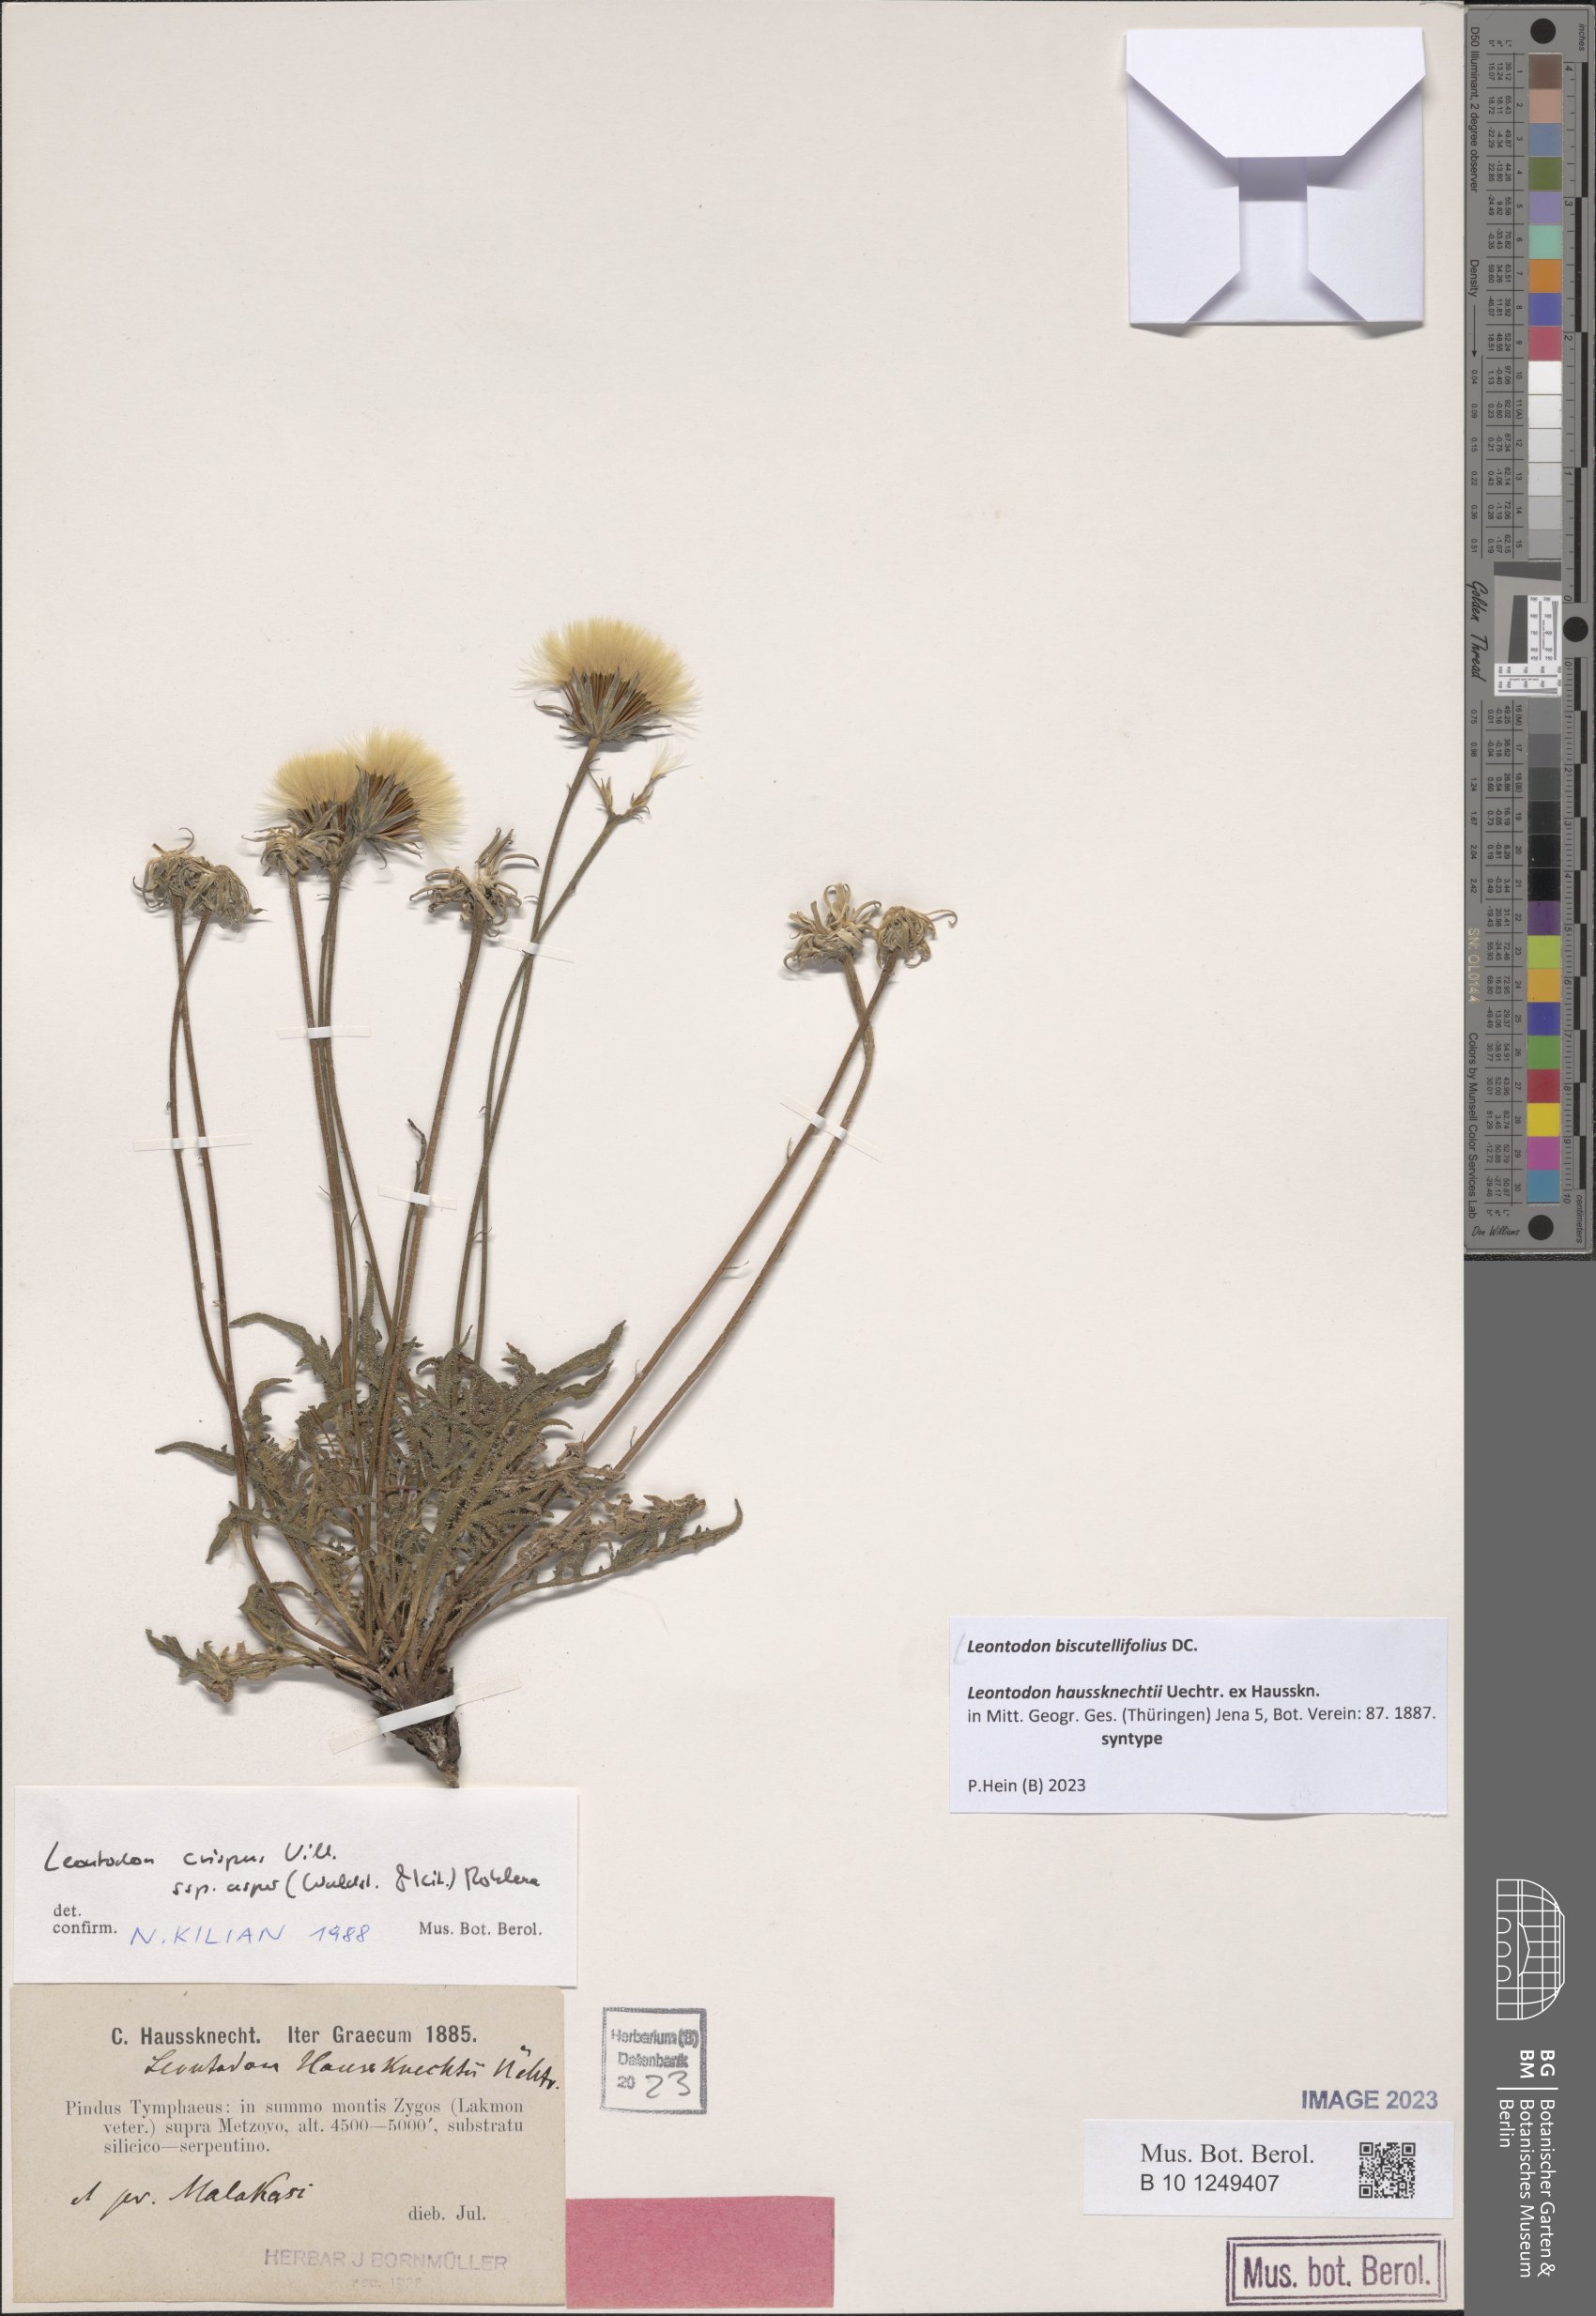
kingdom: Plantae
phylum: Tracheophyta
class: Magnoliopsida
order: Asterales
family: Asteraceae
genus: Leontodon
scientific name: Leontodon biscutellifolius
